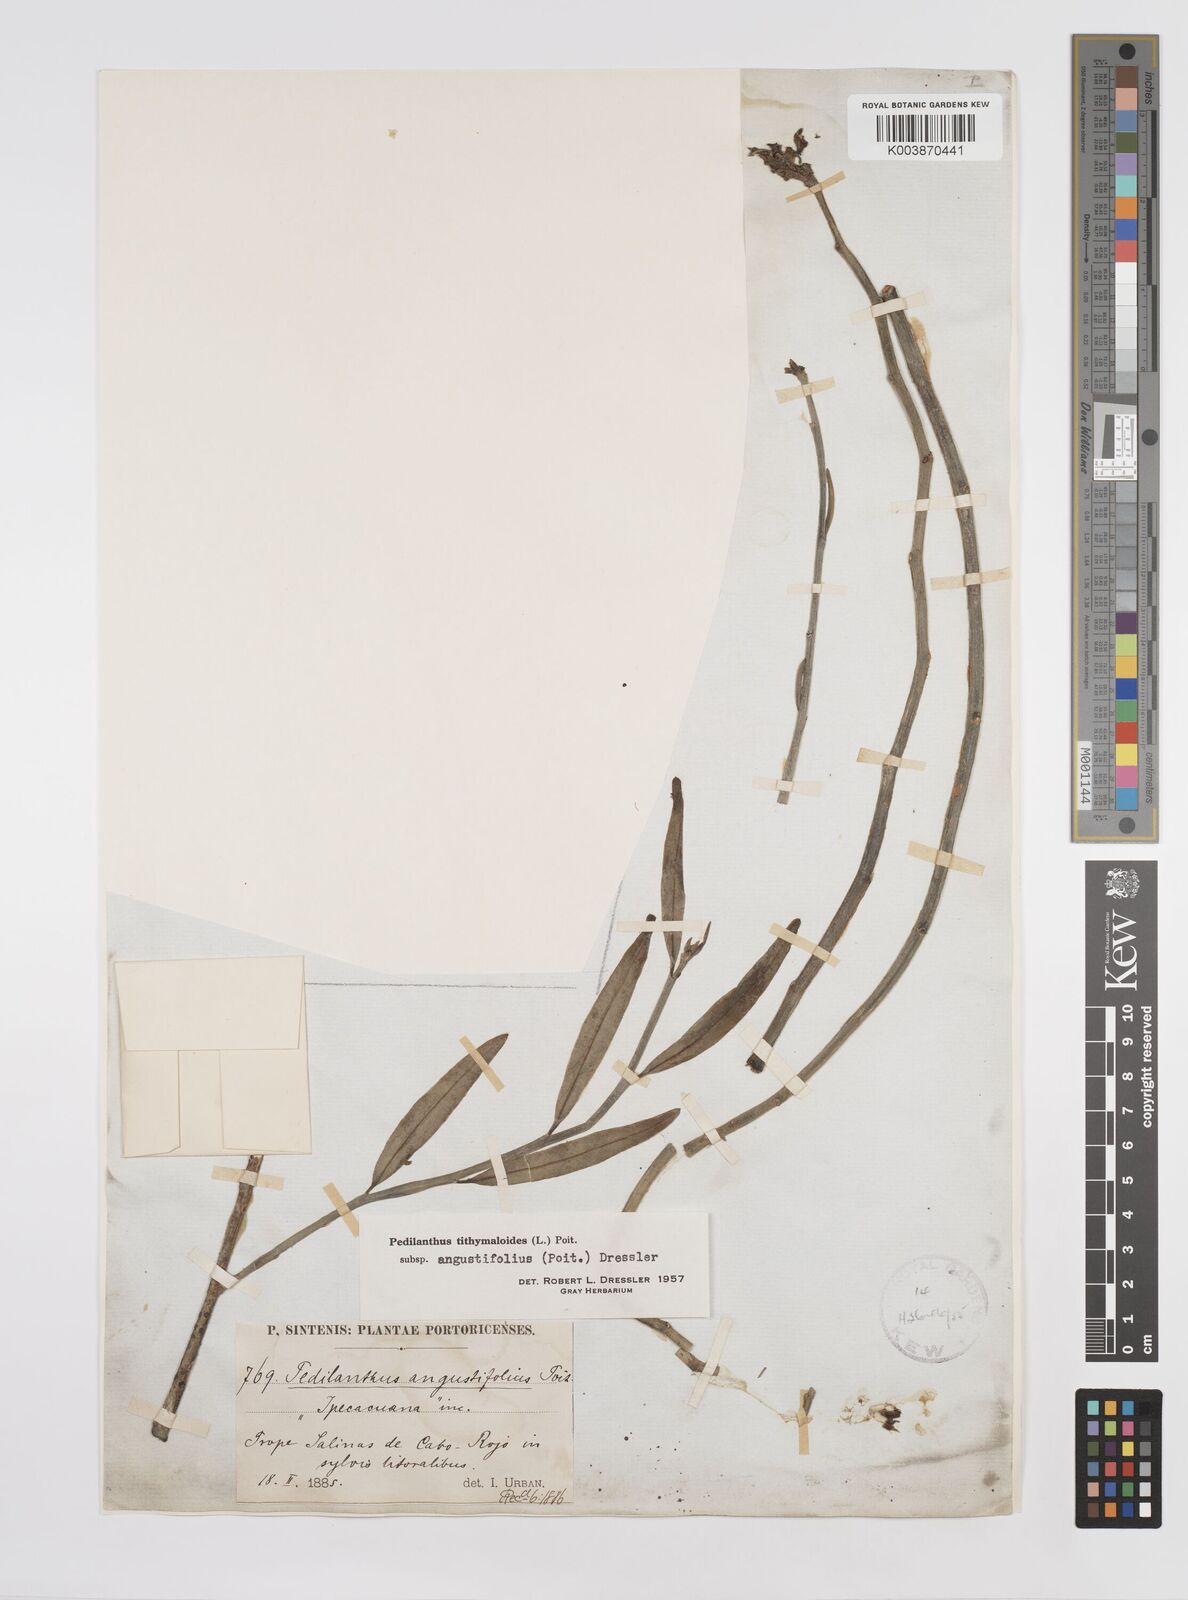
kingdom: Plantae
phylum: Tracheophyta
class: Magnoliopsida
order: Malpighiales
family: Euphorbiaceae
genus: Euphorbia
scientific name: Euphorbia tithymaloides
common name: Slipperplant
